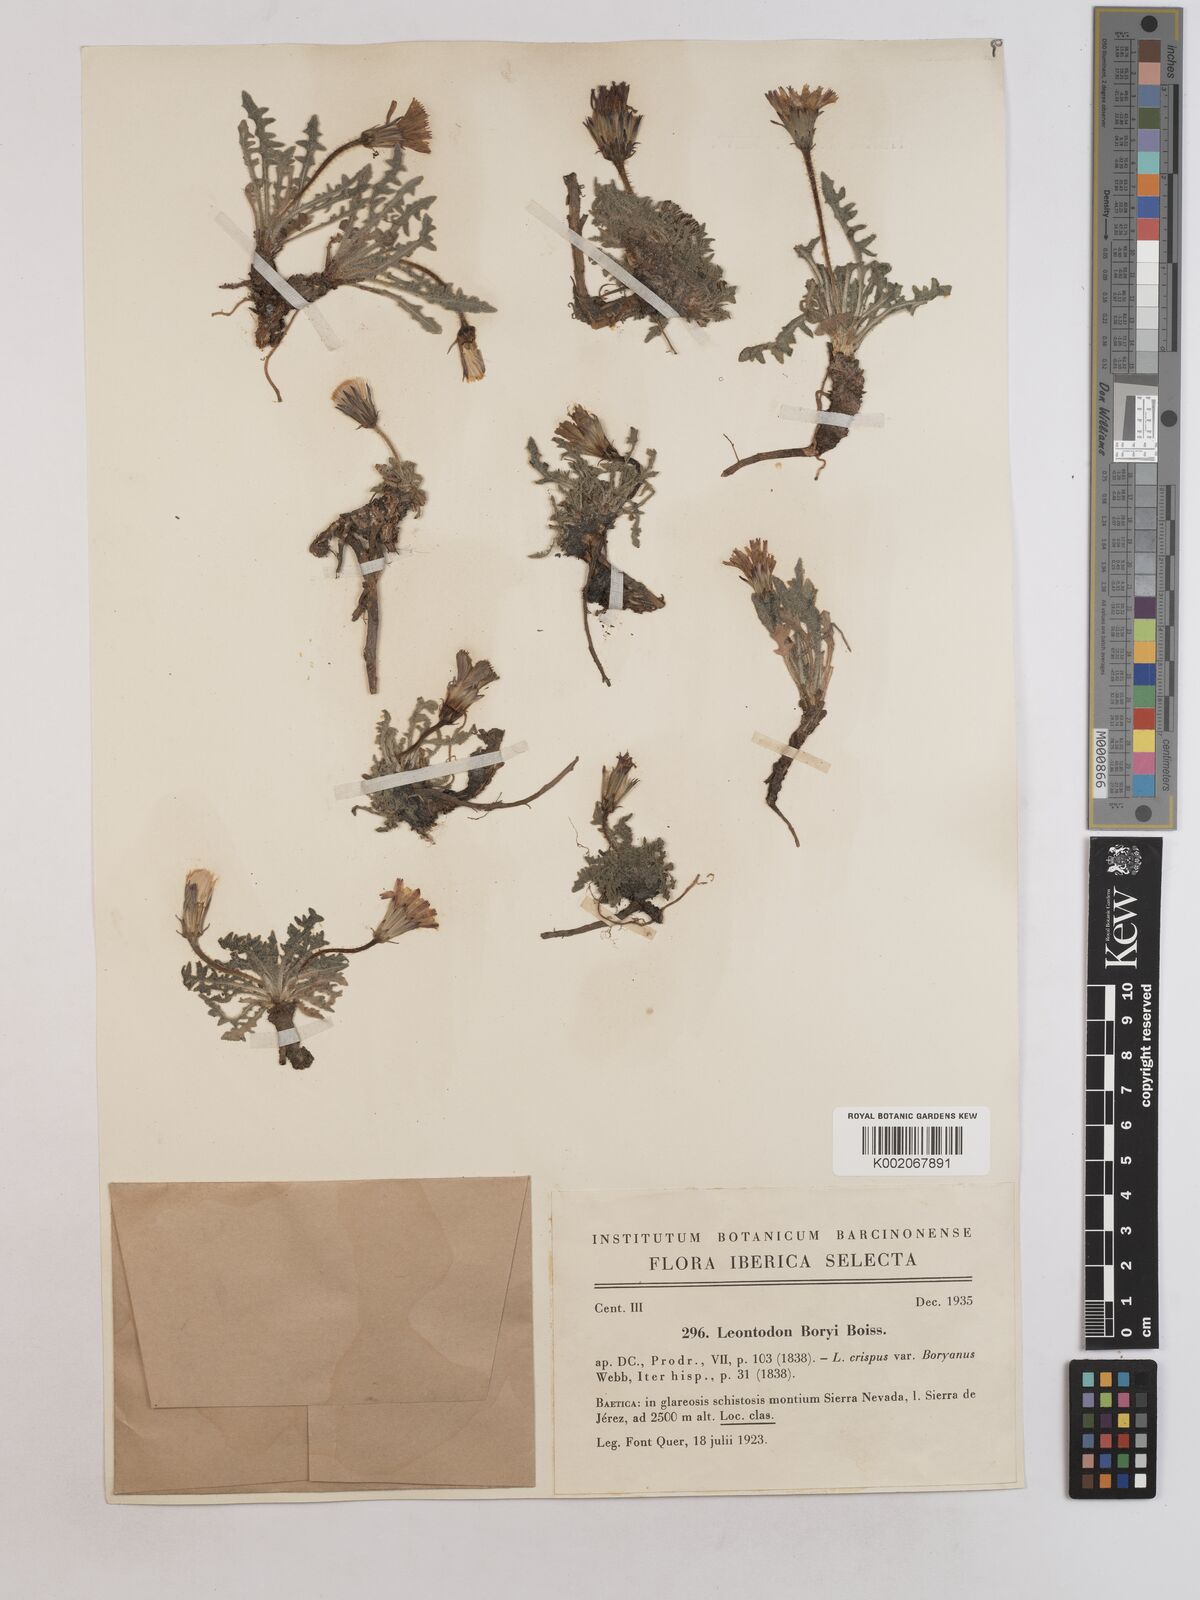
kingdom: Plantae
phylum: Tracheophyta
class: Magnoliopsida
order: Asterales
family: Asteraceae
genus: Leontodon
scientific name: Leontodon boryi
